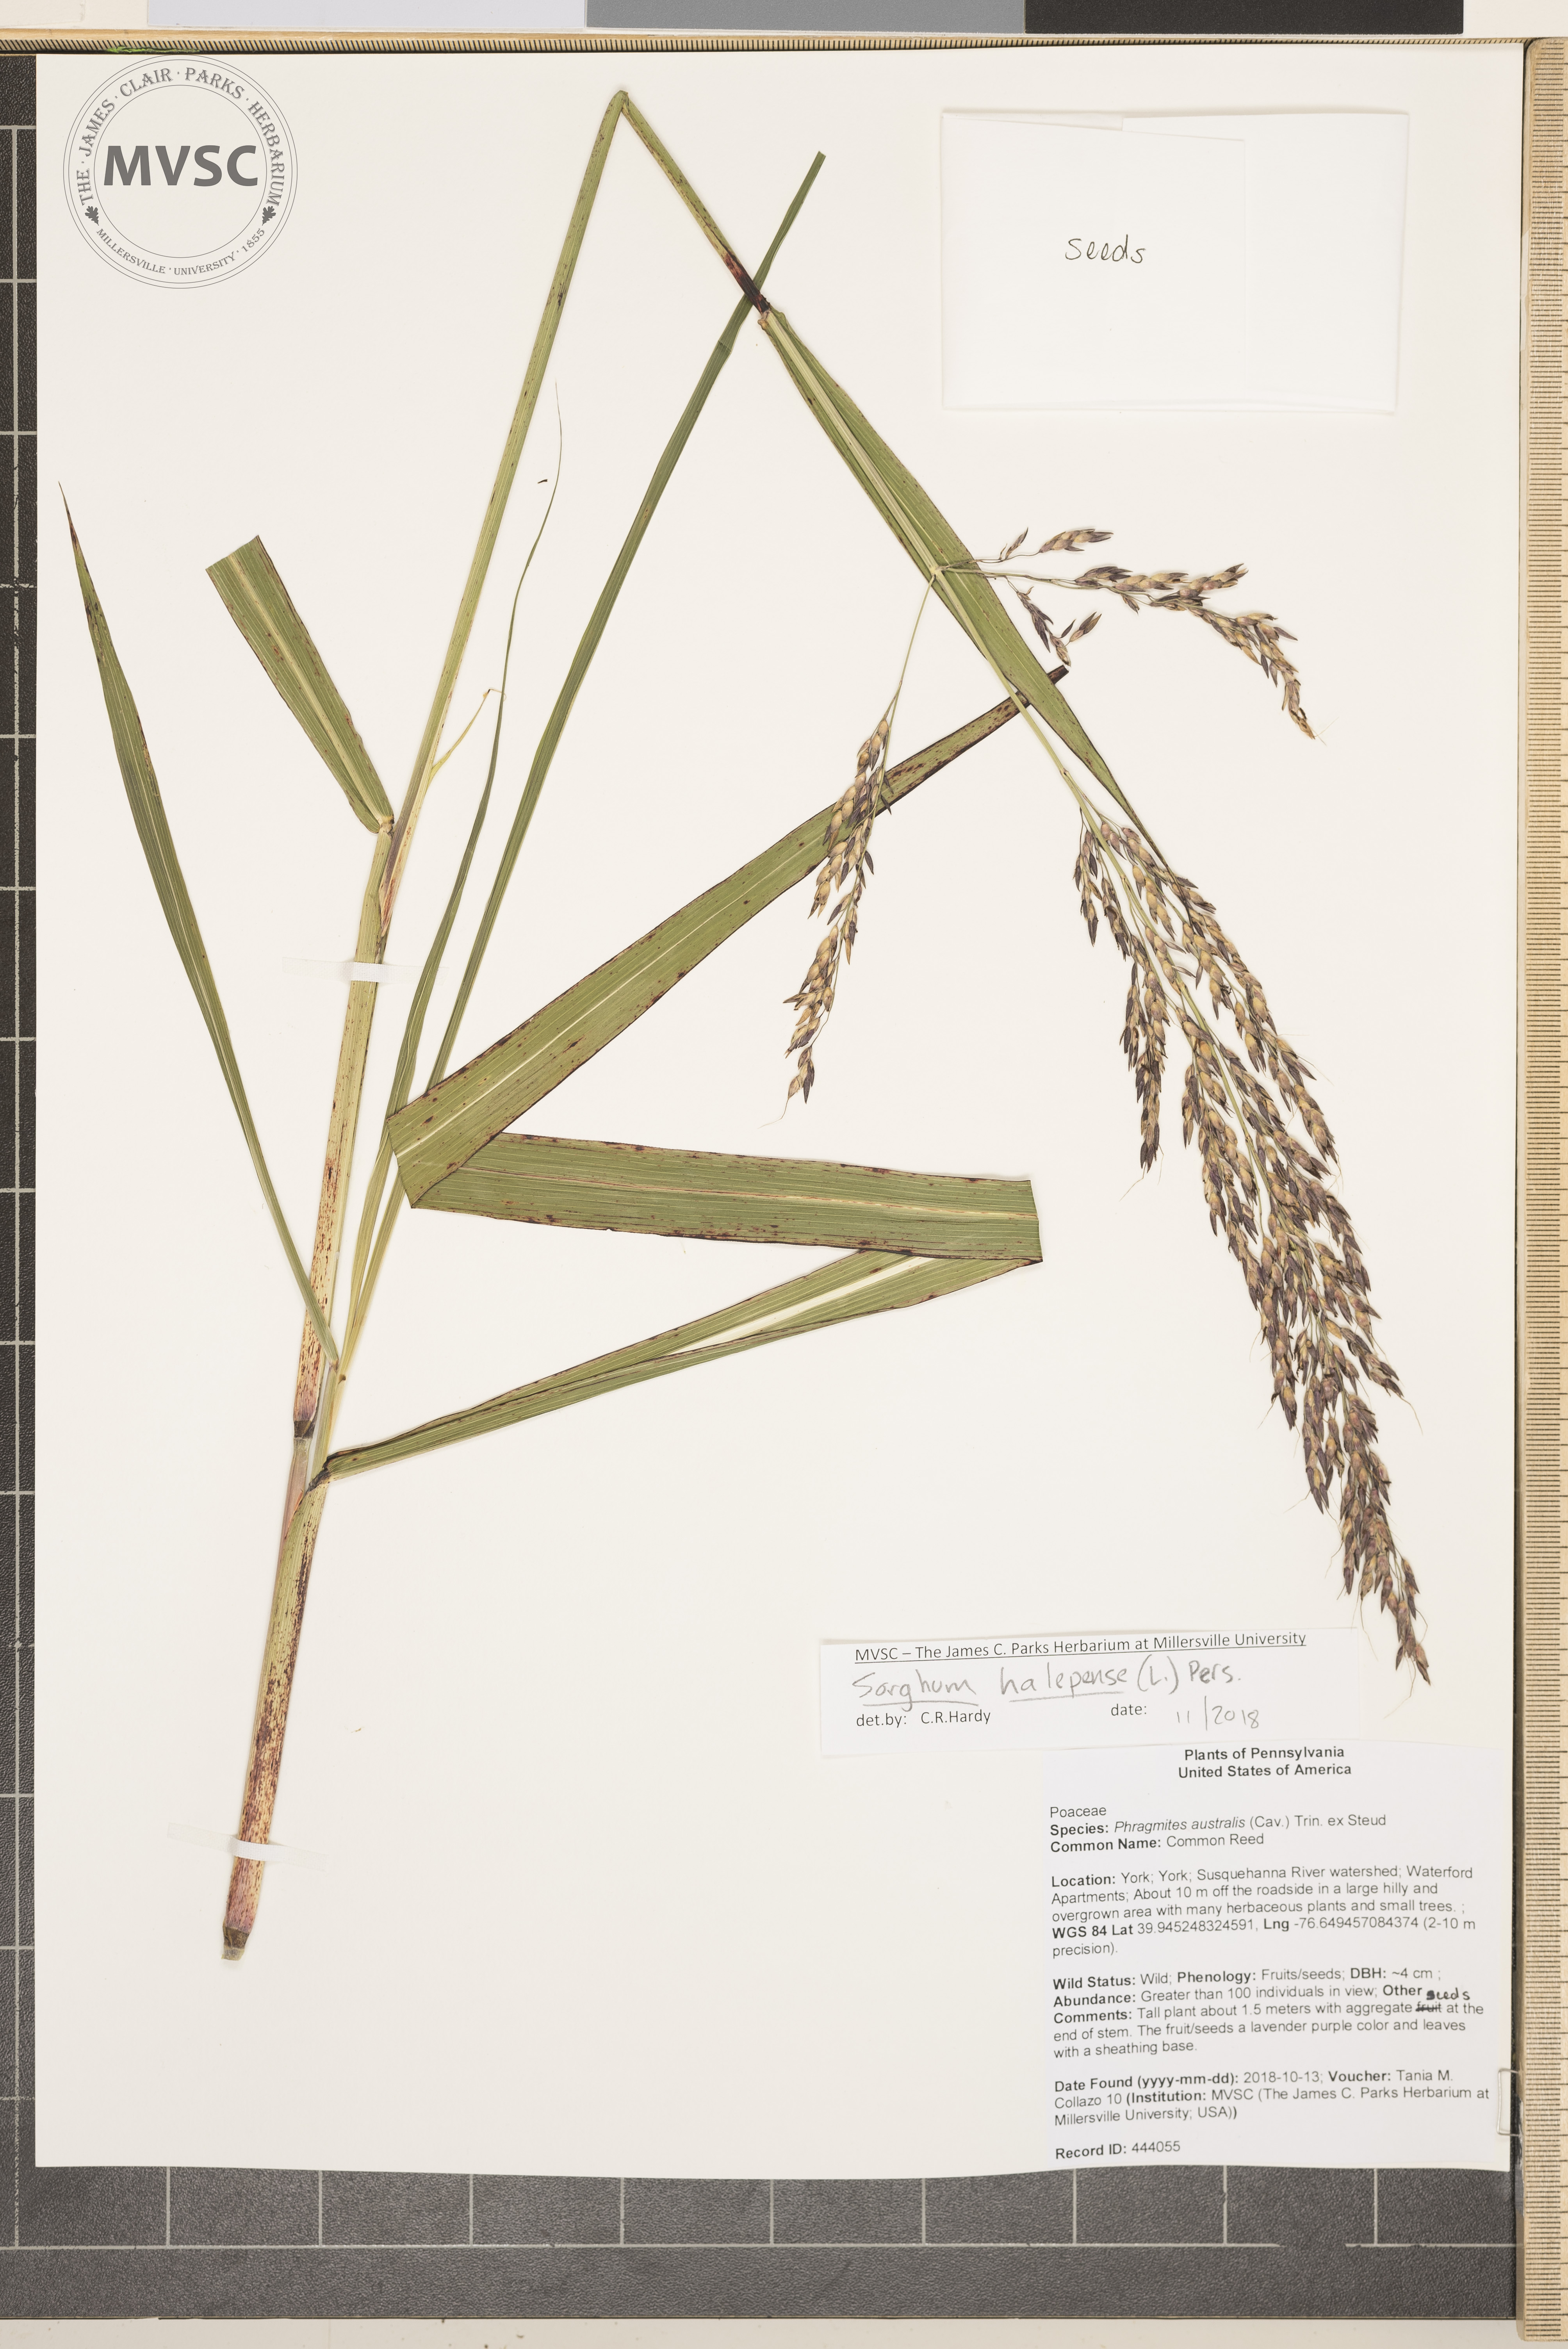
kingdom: Plantae
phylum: Tracheophyta
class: Liliopsida
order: Poales
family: Poaceae
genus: Sorghum
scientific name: Sorghum halepense
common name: Johnsongrass
